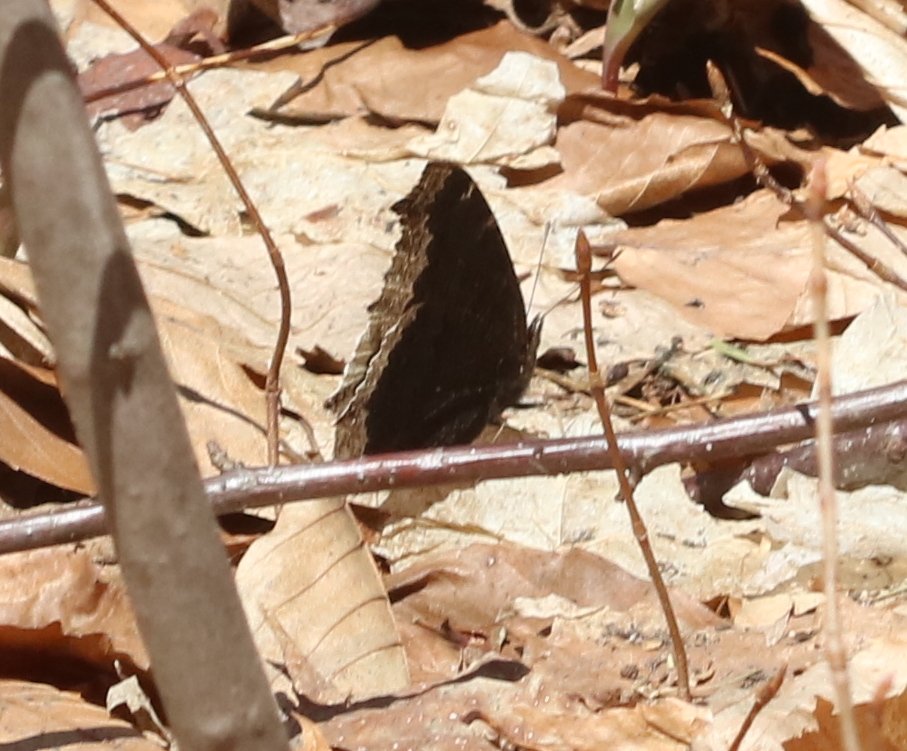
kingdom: Animalia
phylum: Arthropoda
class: Insecta
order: Lepidoptera
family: Nymphalidae
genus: Nymphalis
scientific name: Nymphalis antiopa
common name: Mourning Cloak
